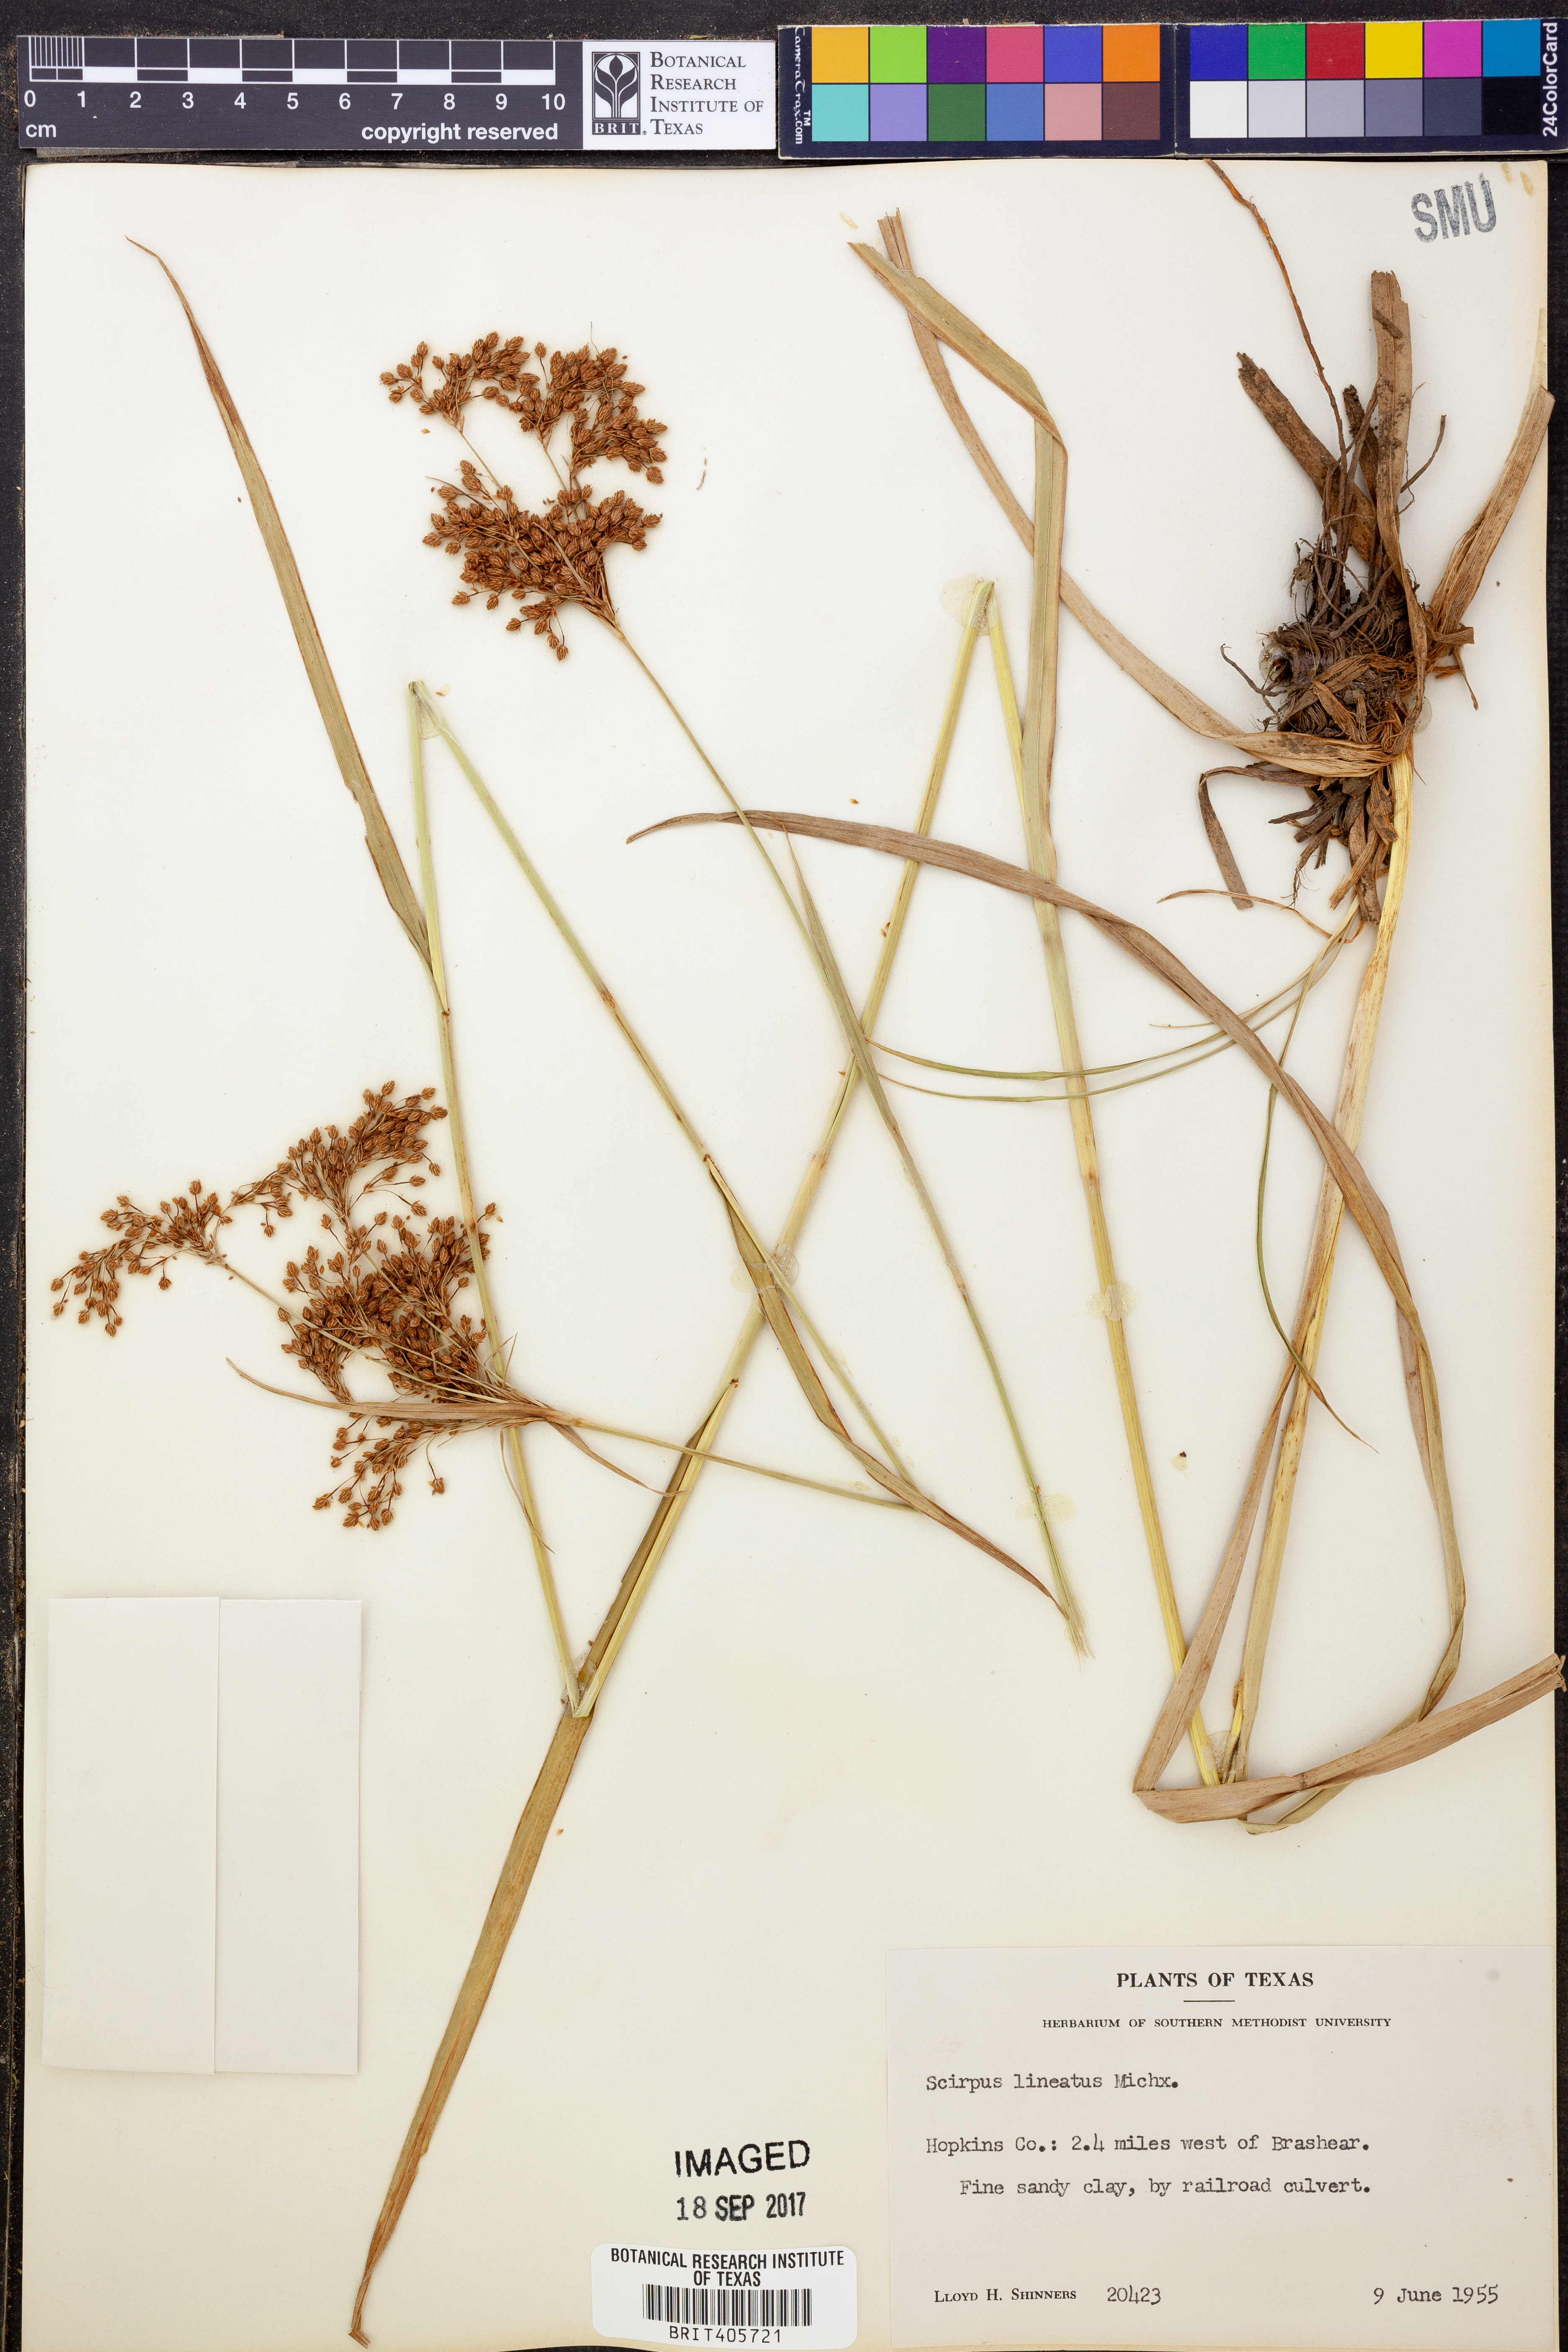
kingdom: Plantae
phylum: Tracheophyta
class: Liliopsida
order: Poales
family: Cyperaceae
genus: Scirpus
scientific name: Scirpus lineatus
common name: Drooping bulrush
